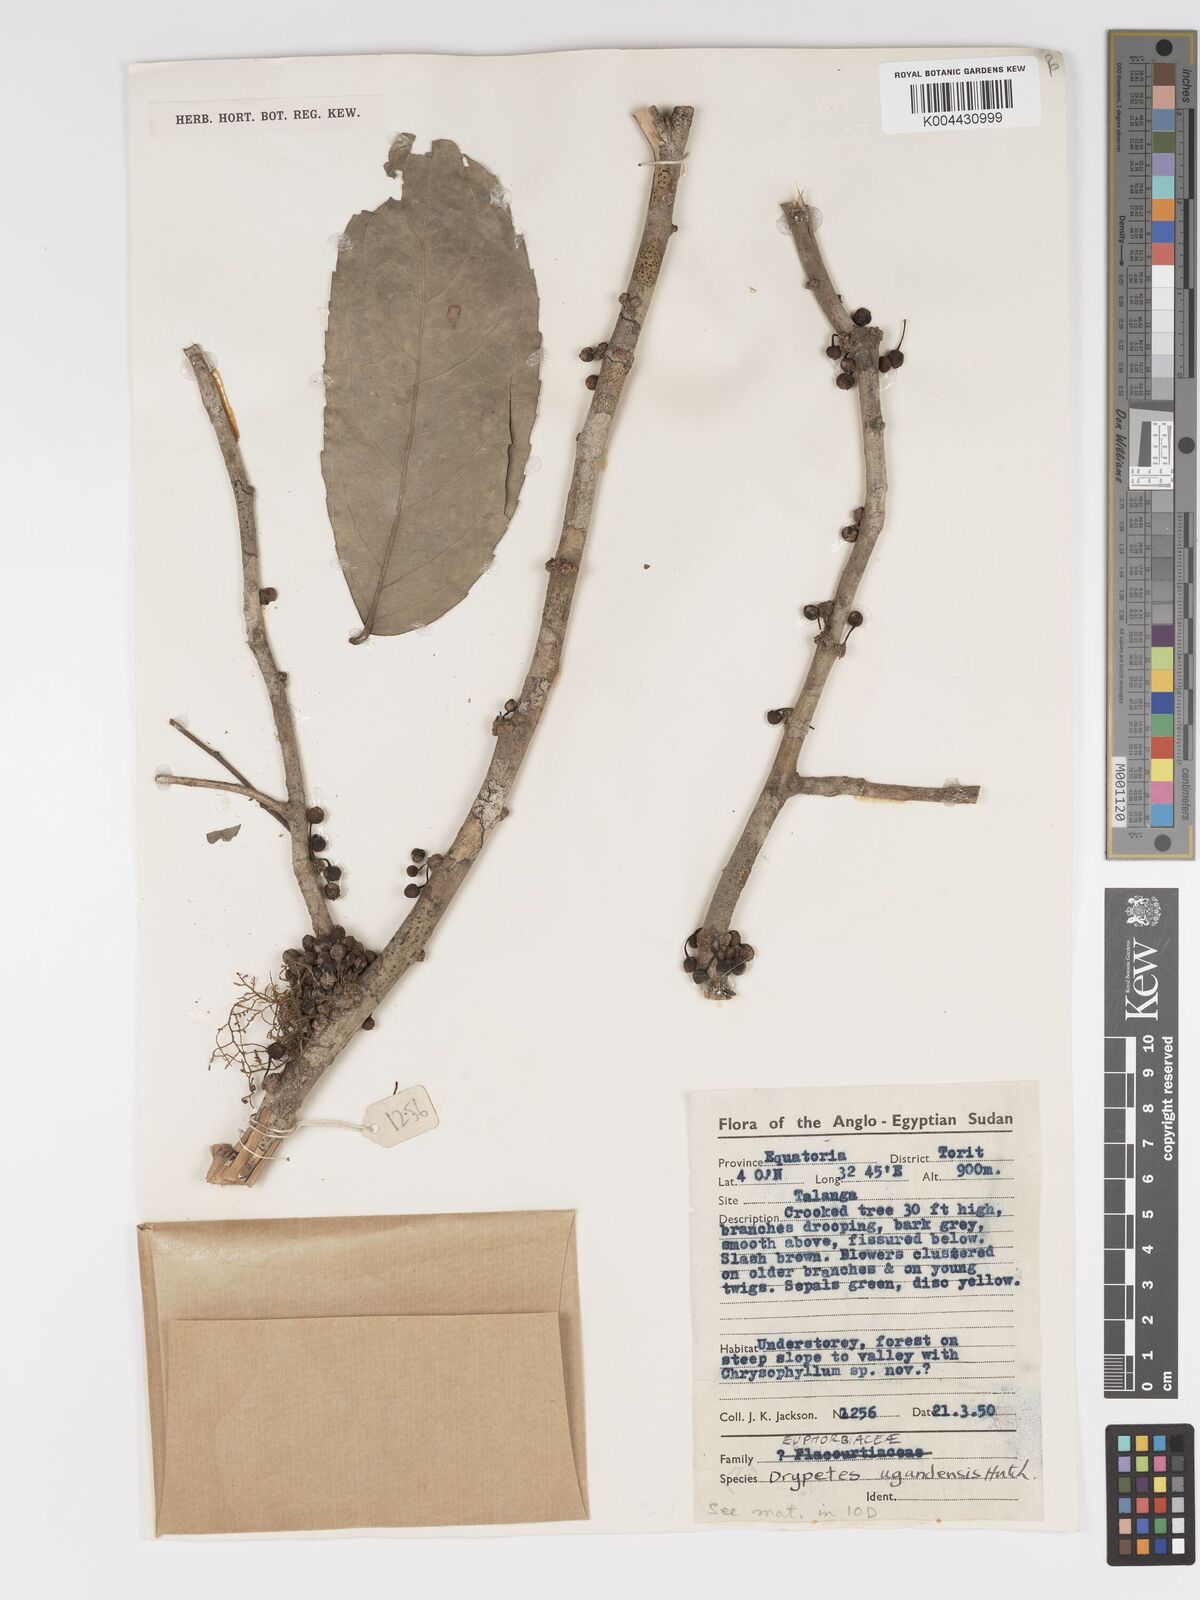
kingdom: Plantae
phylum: Tracheophyta
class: Magnoliopsida
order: Malpighiales
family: Putranjivaceae
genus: Drypetes
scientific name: Drypetes ugandensis
